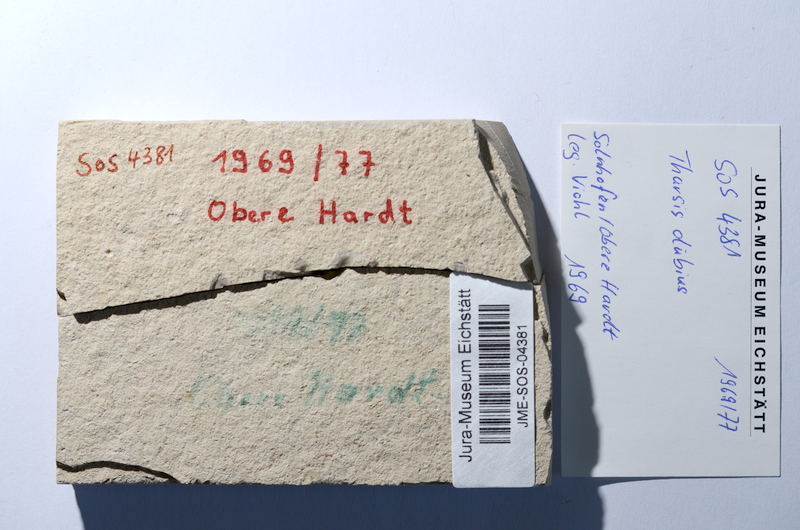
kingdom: Animalia
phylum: Chordata
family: Ascalaboidae
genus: Tharsis
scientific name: Tharsis dubius
